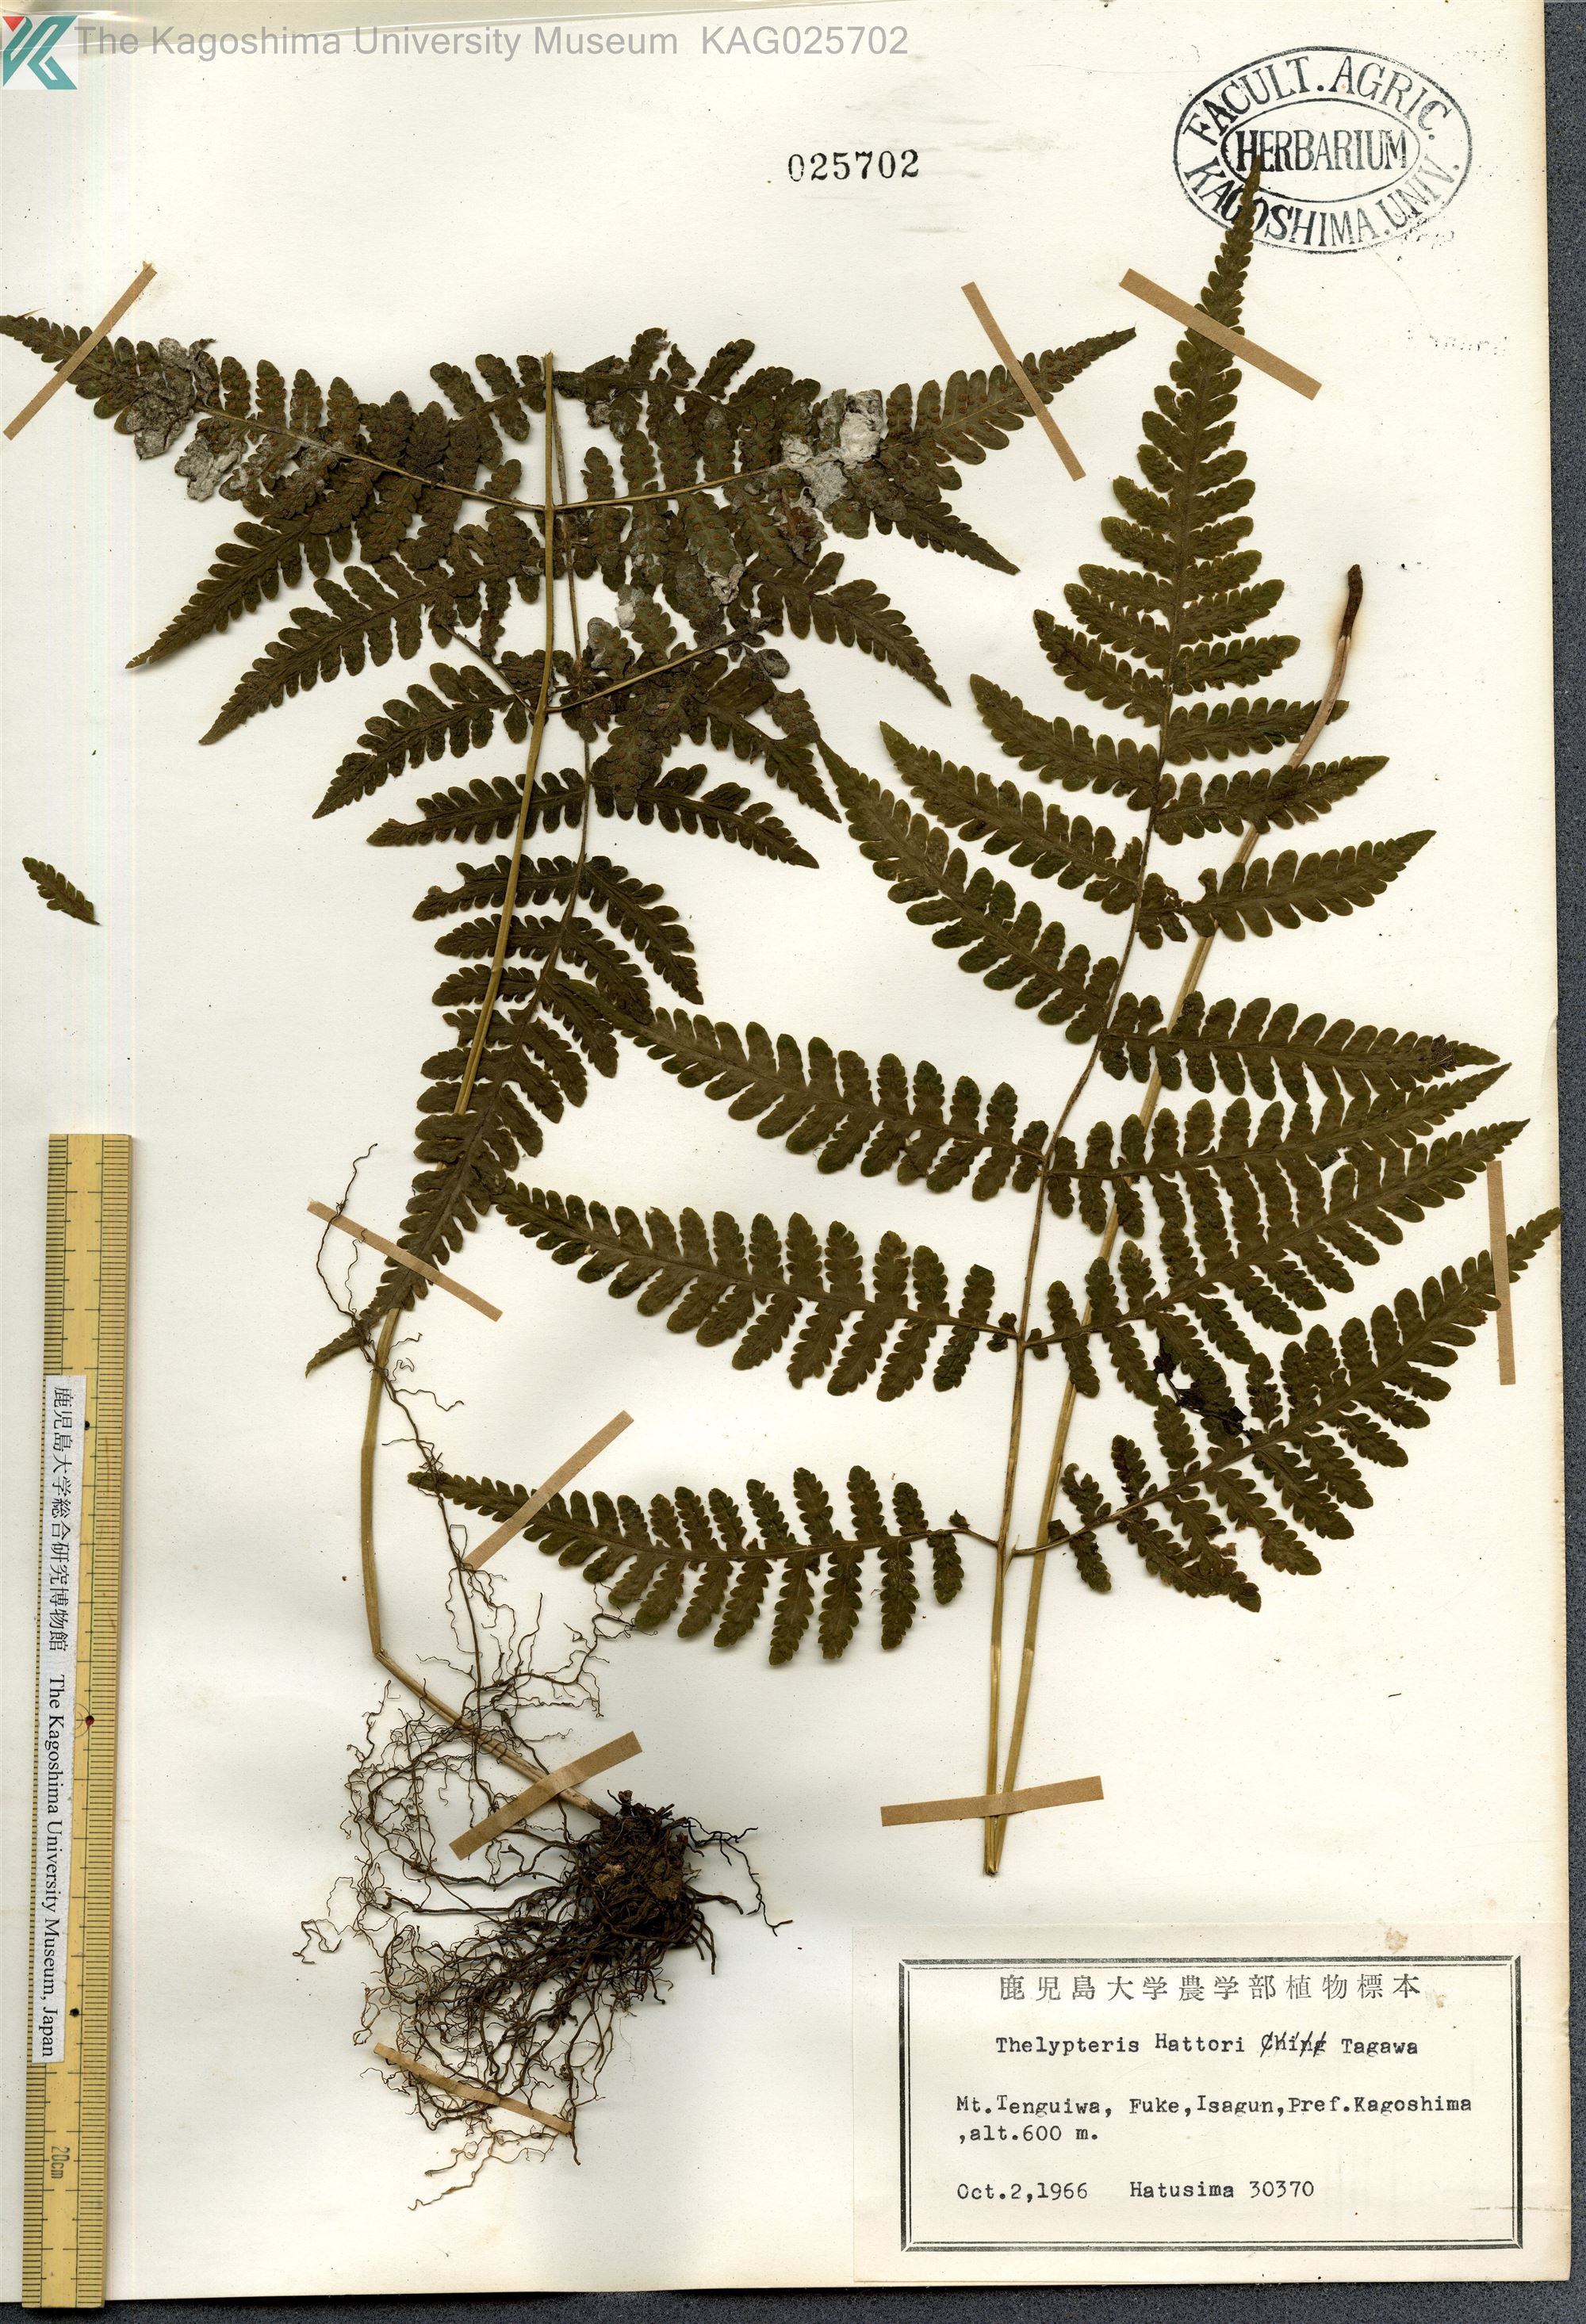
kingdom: Plantae
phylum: Tracheophyta
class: Polypodiopsida
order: Polypodiales
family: Thelypteridaceae
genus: Metathelypteris
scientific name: Metathelypteris hattori
